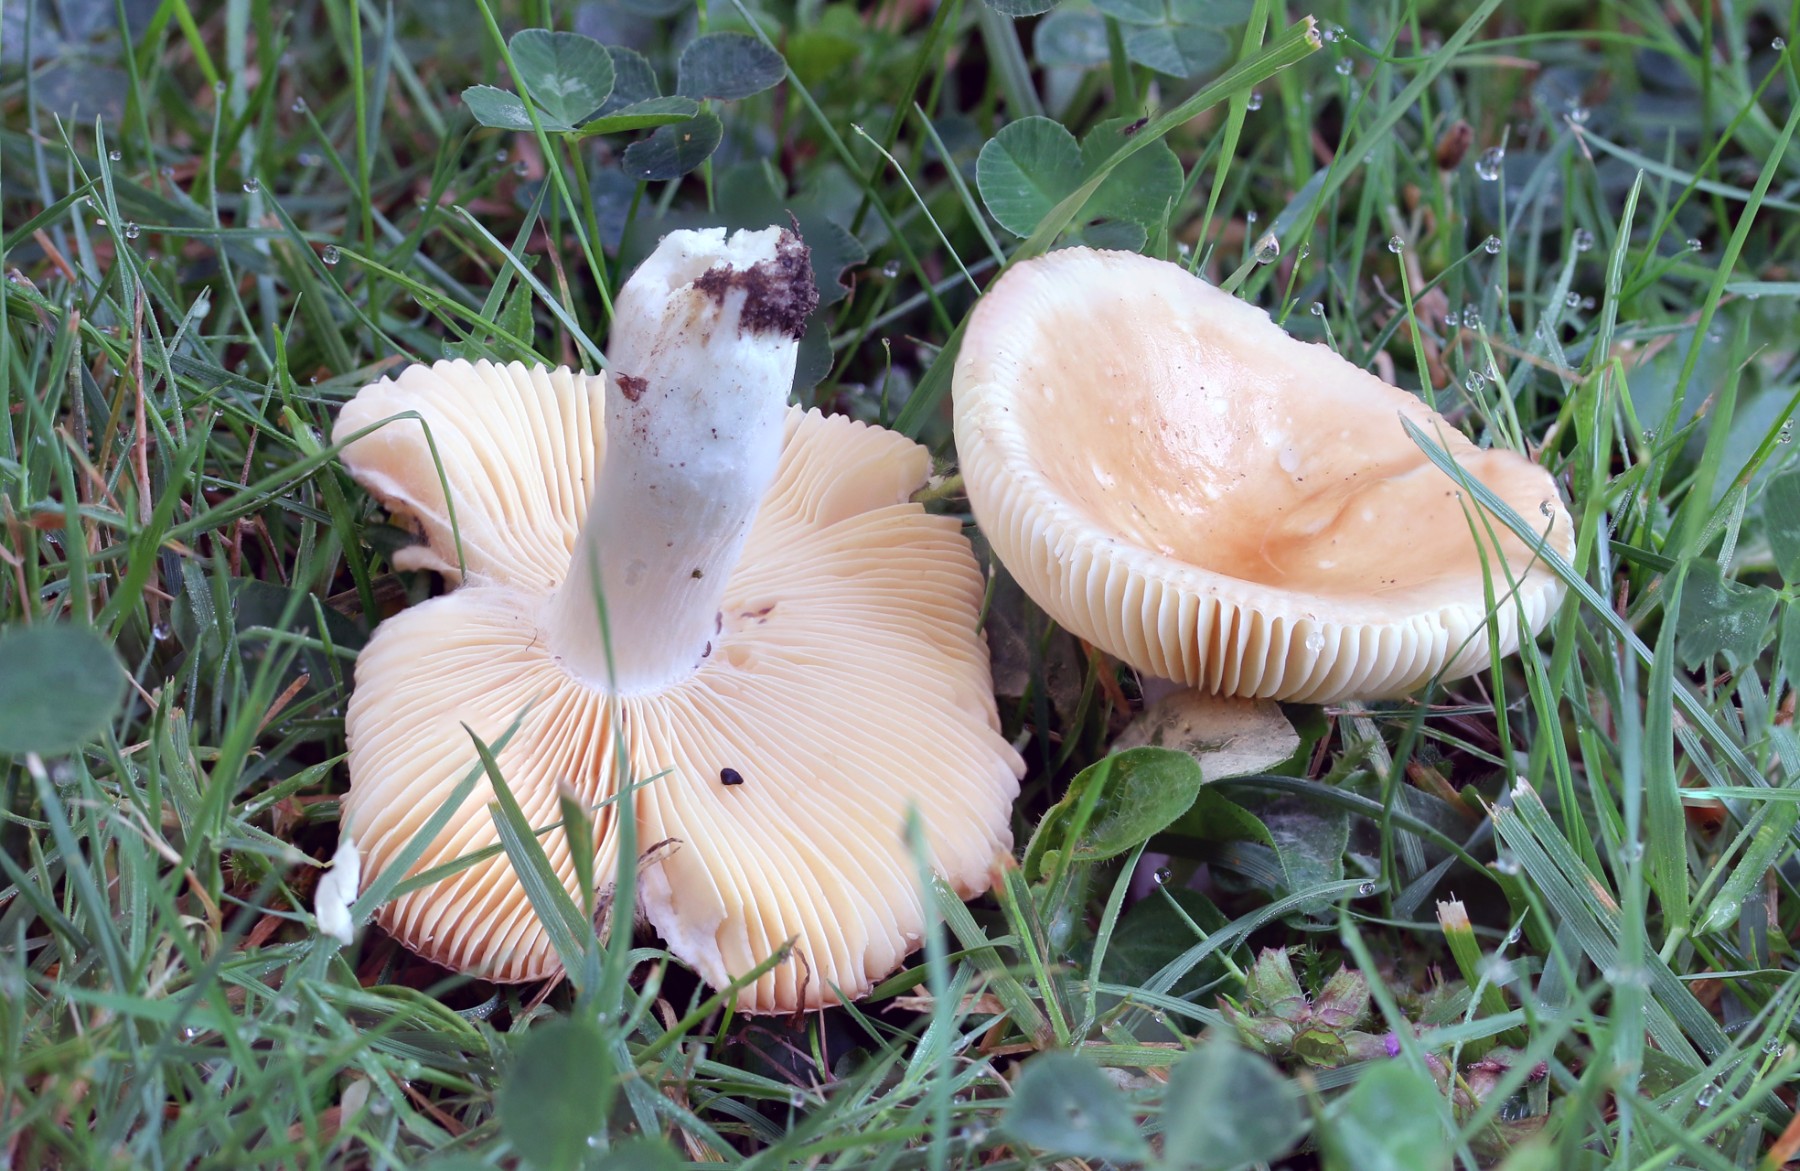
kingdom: Fungi
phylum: Basidiomycota
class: Agaricomycetes
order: Russulales
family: Russulaceae
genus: Russula
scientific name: Russula versicolor
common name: foranderlig skørhat
